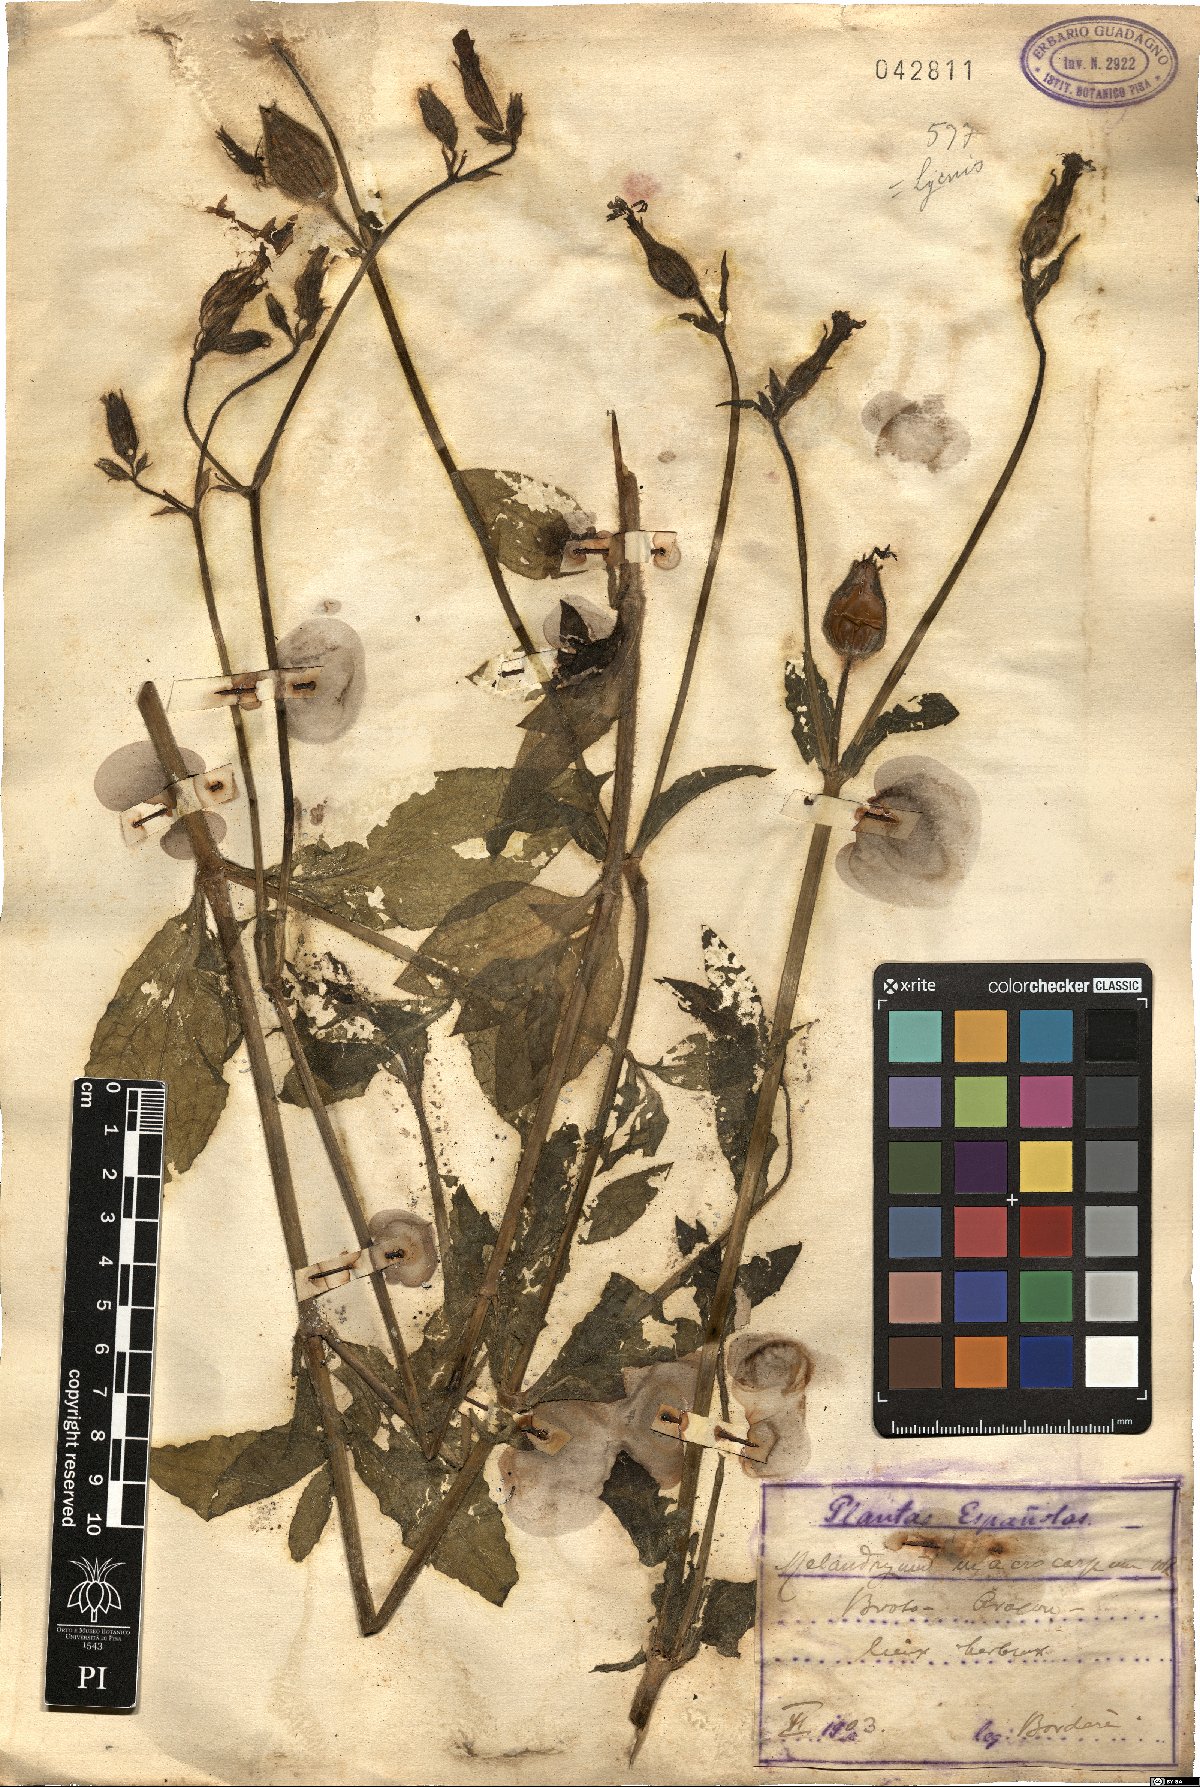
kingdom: Plantae
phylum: Tracheophyta
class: Magnoliopsida
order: Caryophyllales
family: Caryophyllaceae
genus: Silene
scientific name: Silene latifolia
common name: White campion
